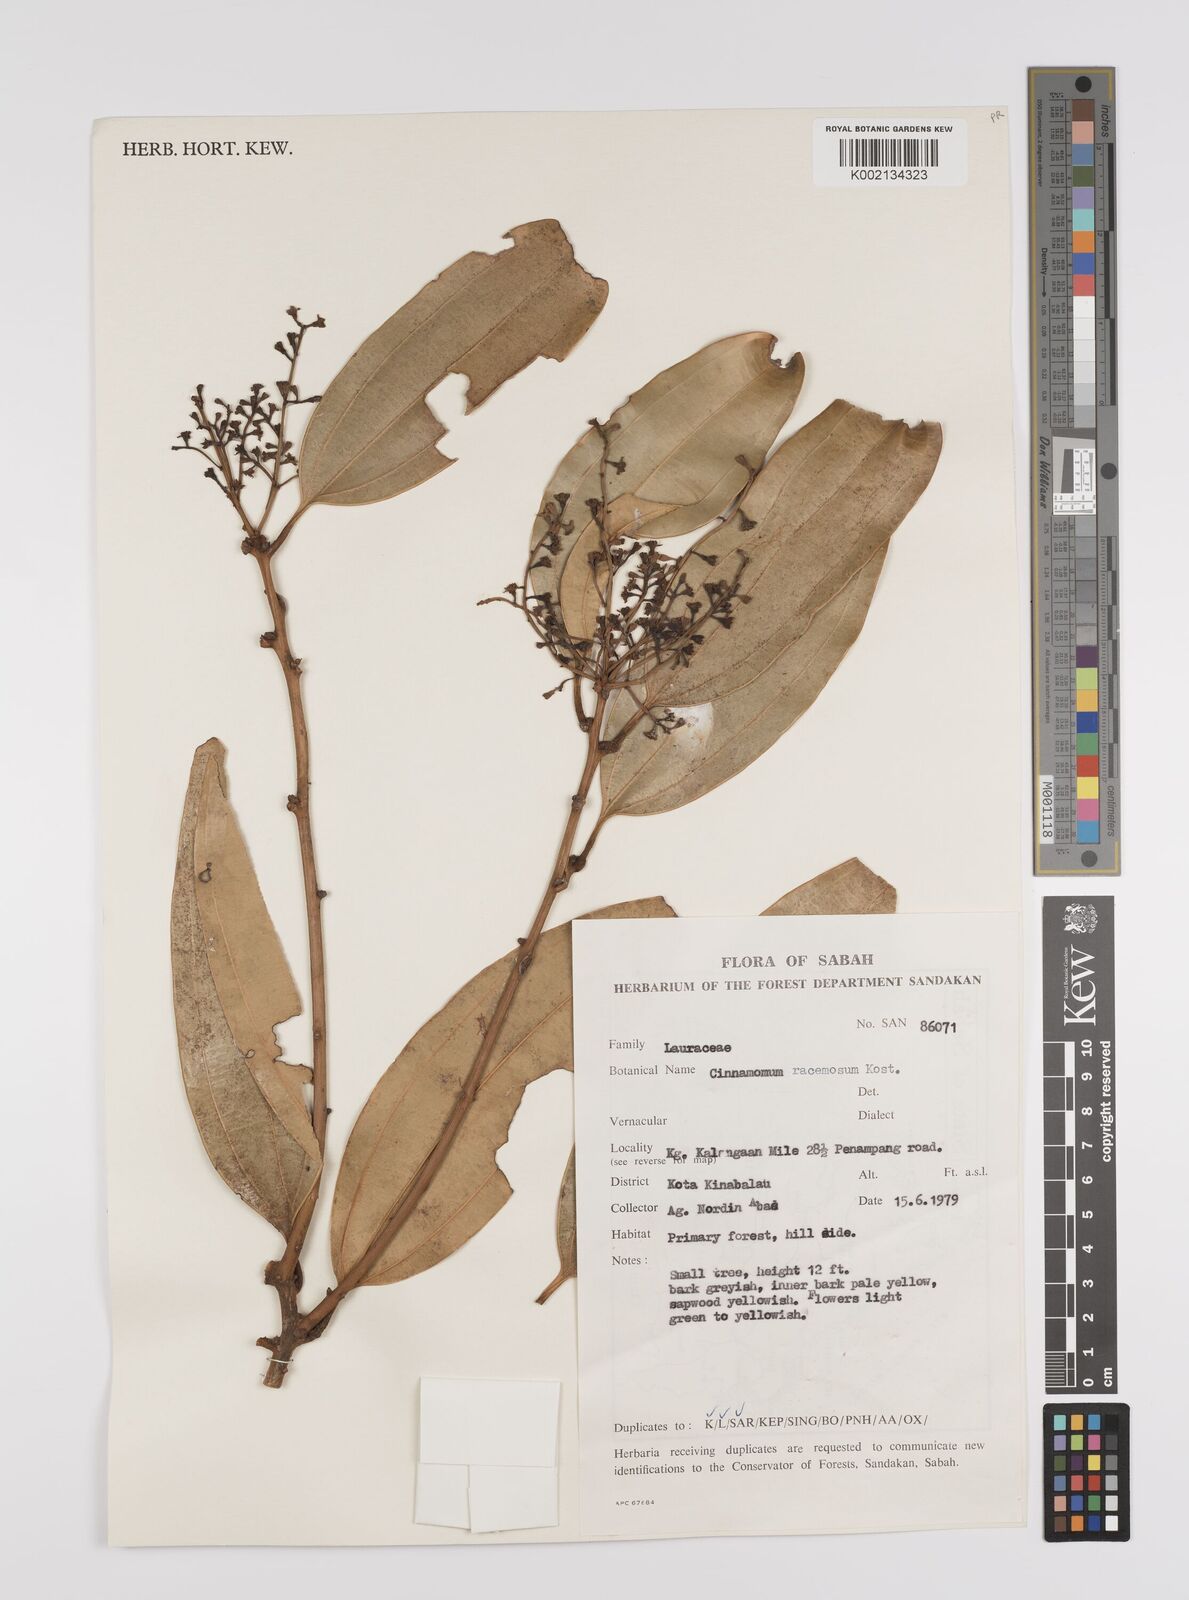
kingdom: Plantae
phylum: Tracheophyta
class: Magnoliopsida
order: Laurales
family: Lauraceae
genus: Cinnamomum
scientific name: Cinnamomum racemosum
